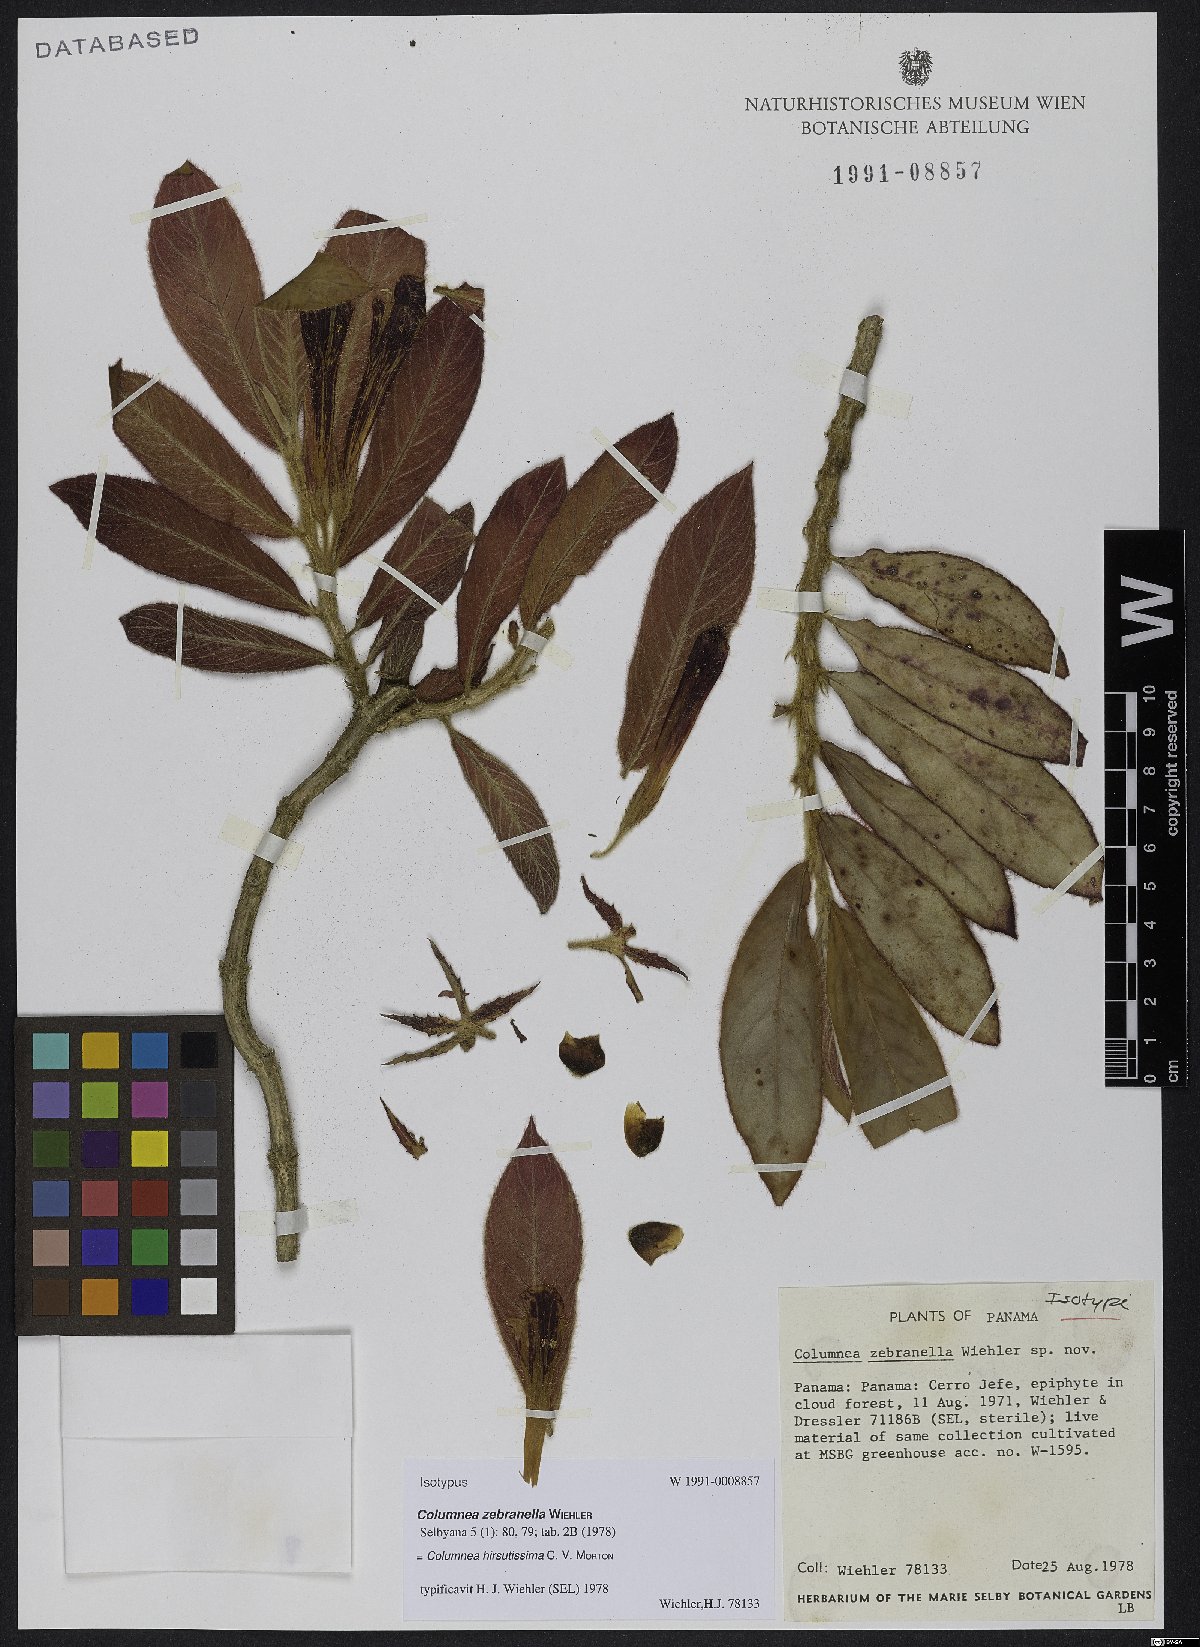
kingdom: Plantae
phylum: Tracheophyta
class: Magnoliopsida
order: Lamiales
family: Gesneriaceae
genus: Columnea
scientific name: Columnea hirsutissima
